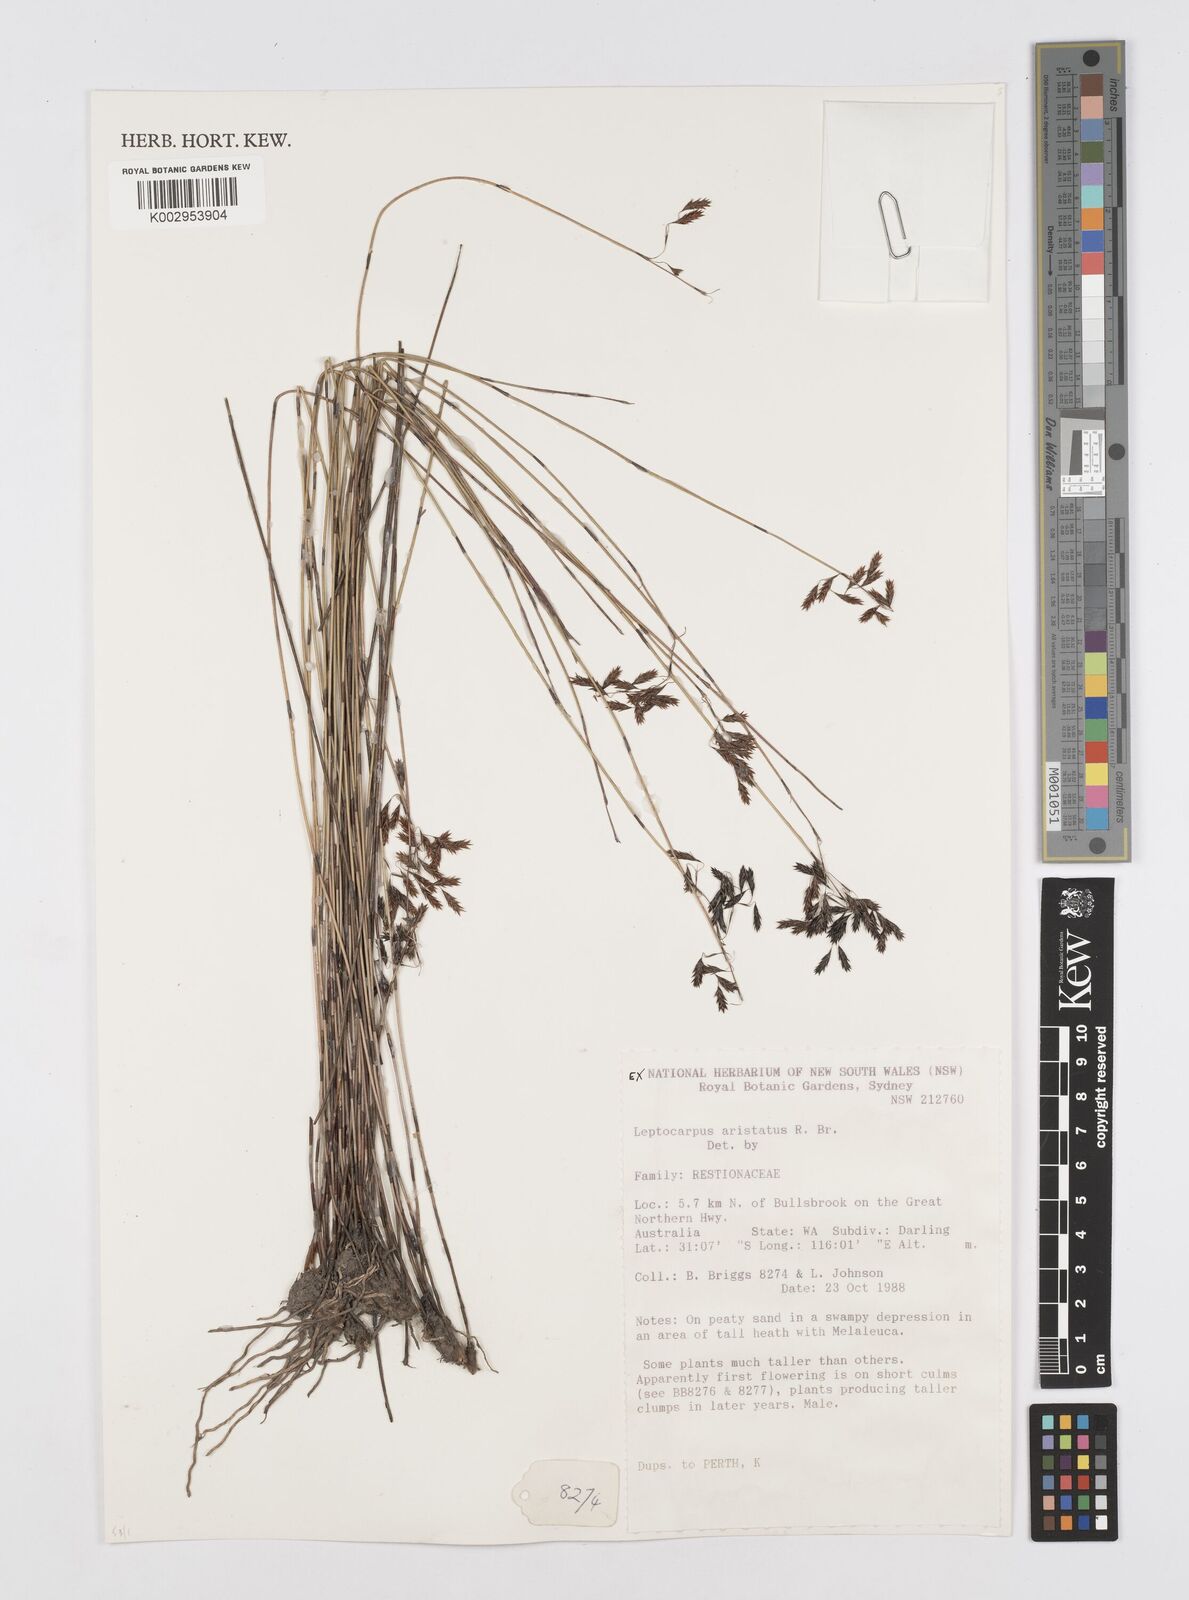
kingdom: Plantae
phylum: Tracheophyta
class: Liliopsida
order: Poales
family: Restionaceae
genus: Chaetanthus
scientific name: Chaetanthus aristatus
